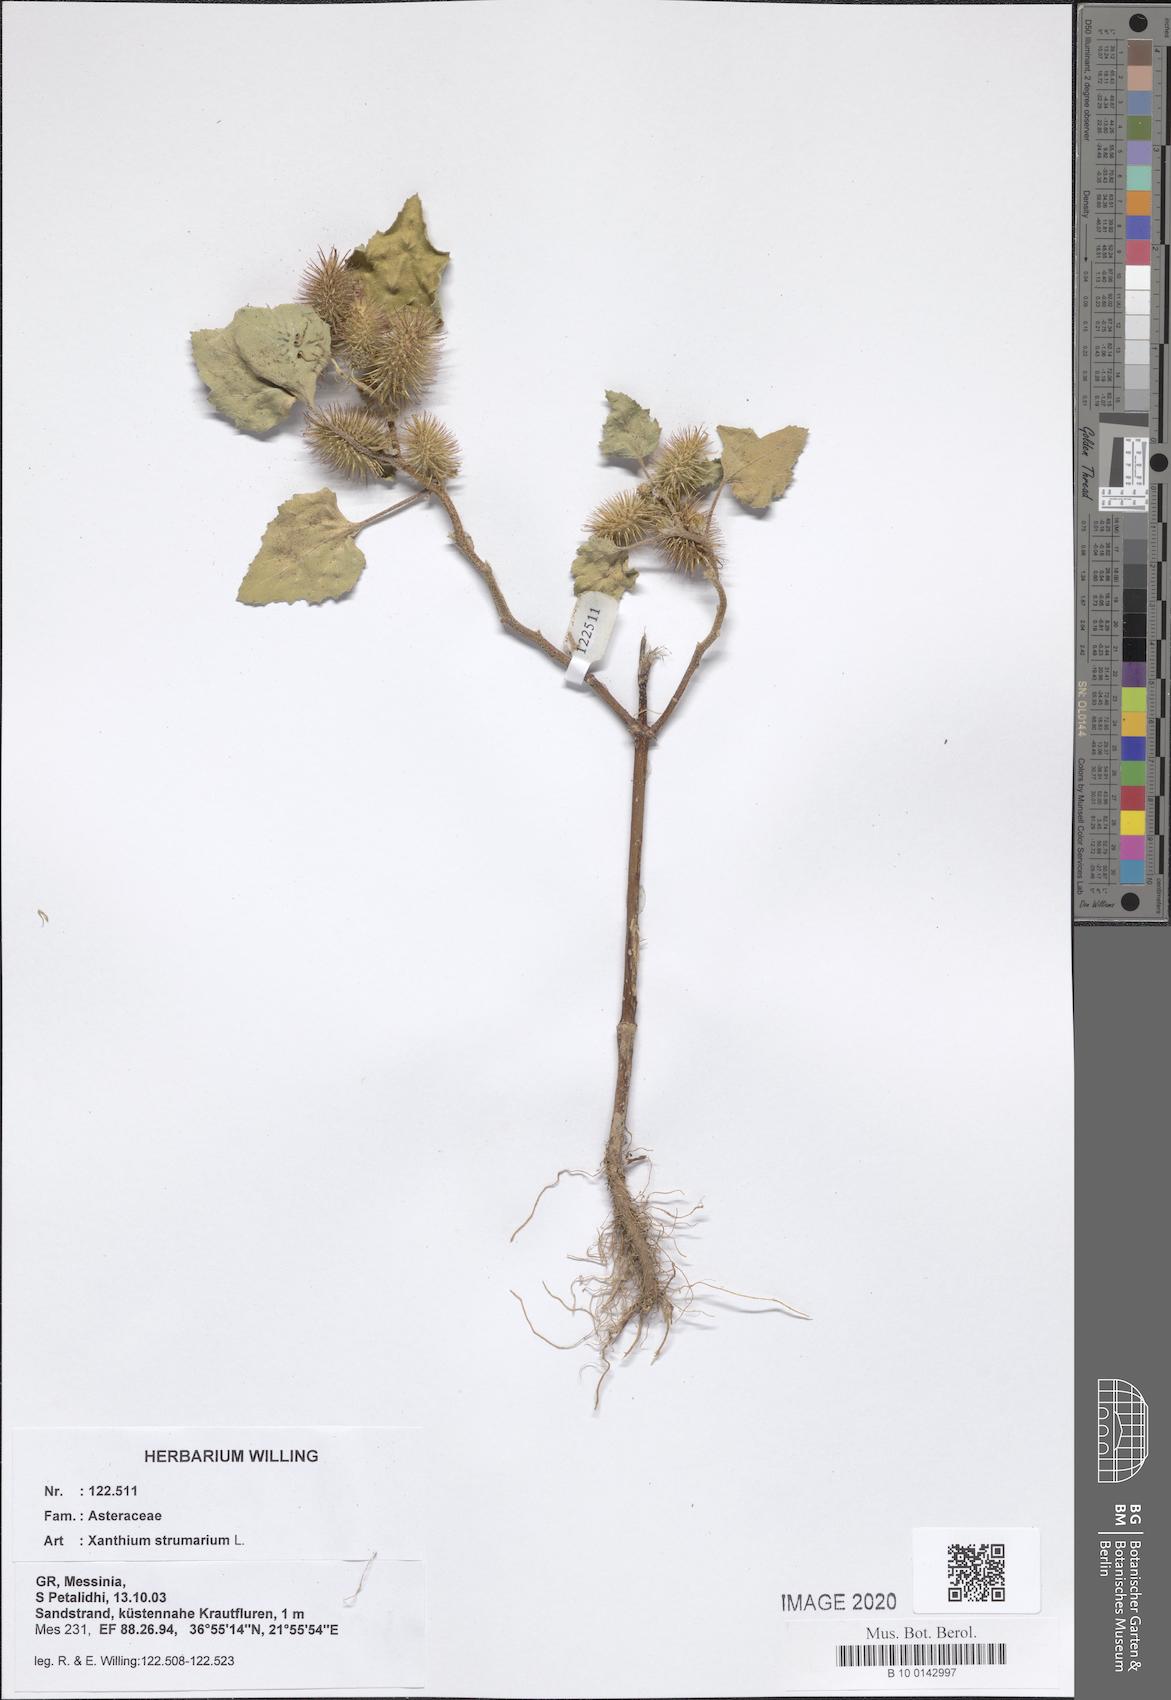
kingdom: Plantae
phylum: Tracheophyta
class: Magnoliopsida
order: Asterales
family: Asteraceae
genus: Xanthium
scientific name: Xanthium strumarium
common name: Rough cocklebur
